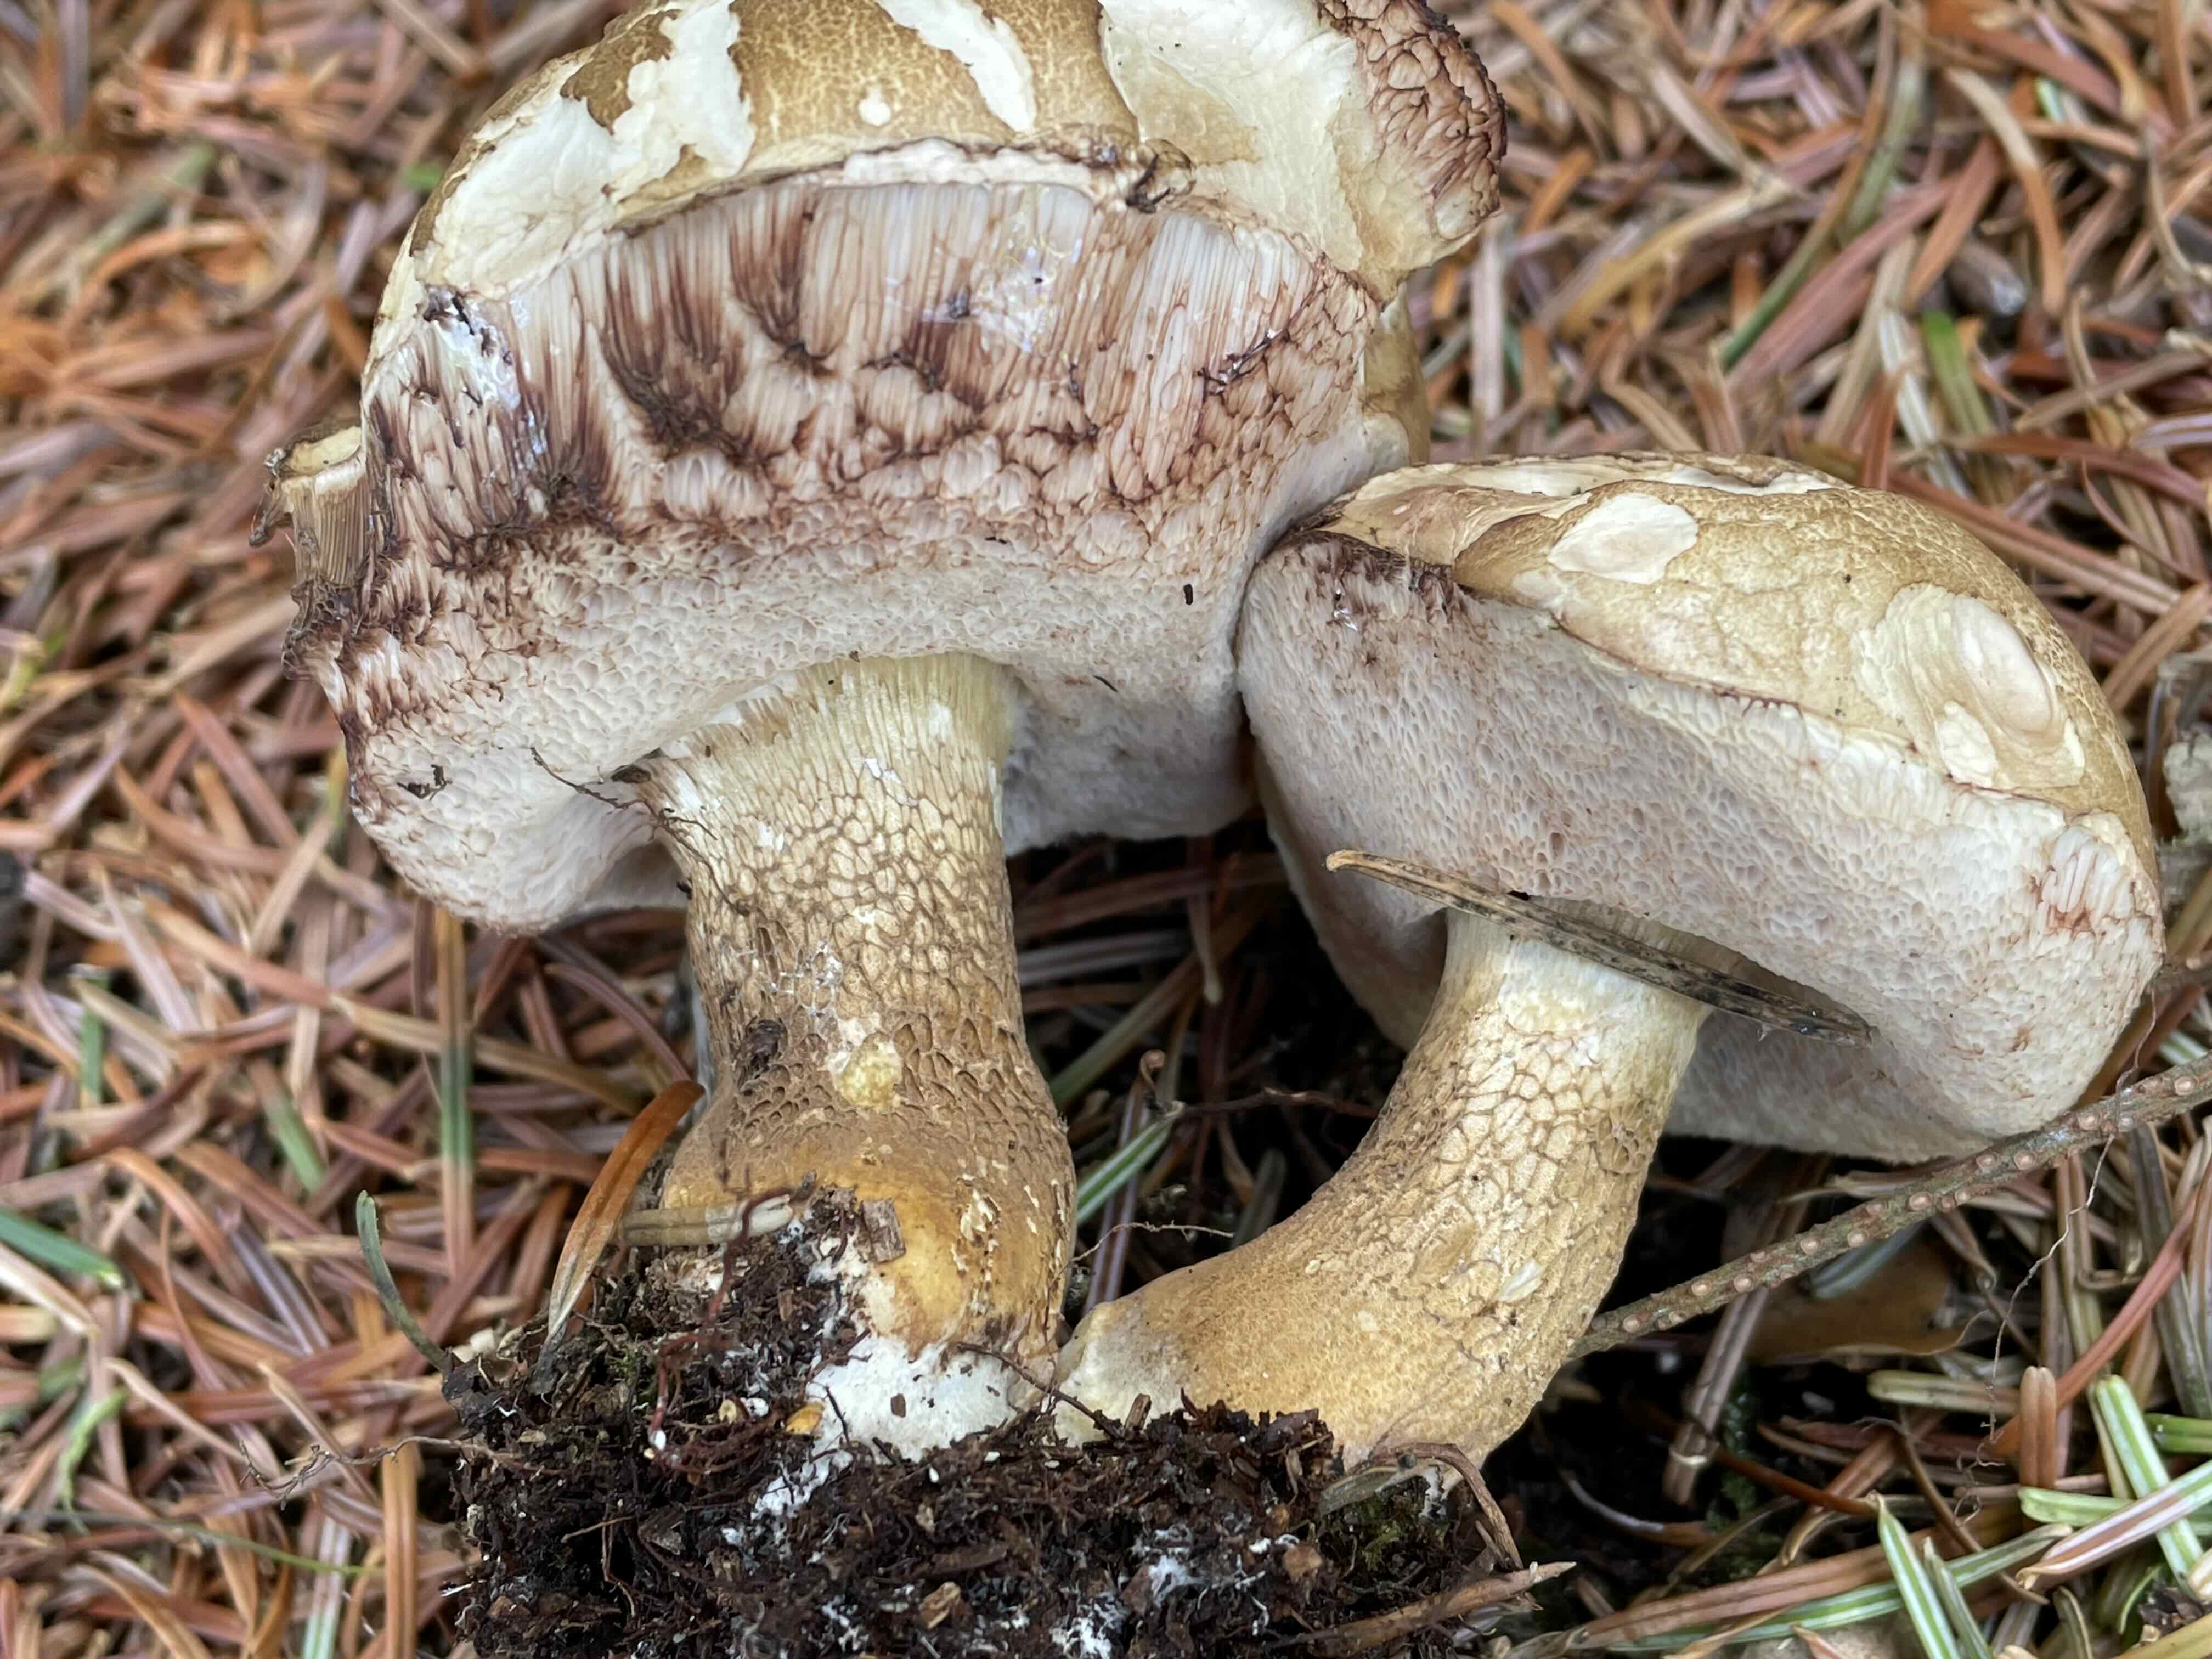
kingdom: Fungi
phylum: Basidiomycota
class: Agaricomycetes
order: Boletales
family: Boletaceae
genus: Tylopilus
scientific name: Tylopilus felleus
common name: galderørhat
